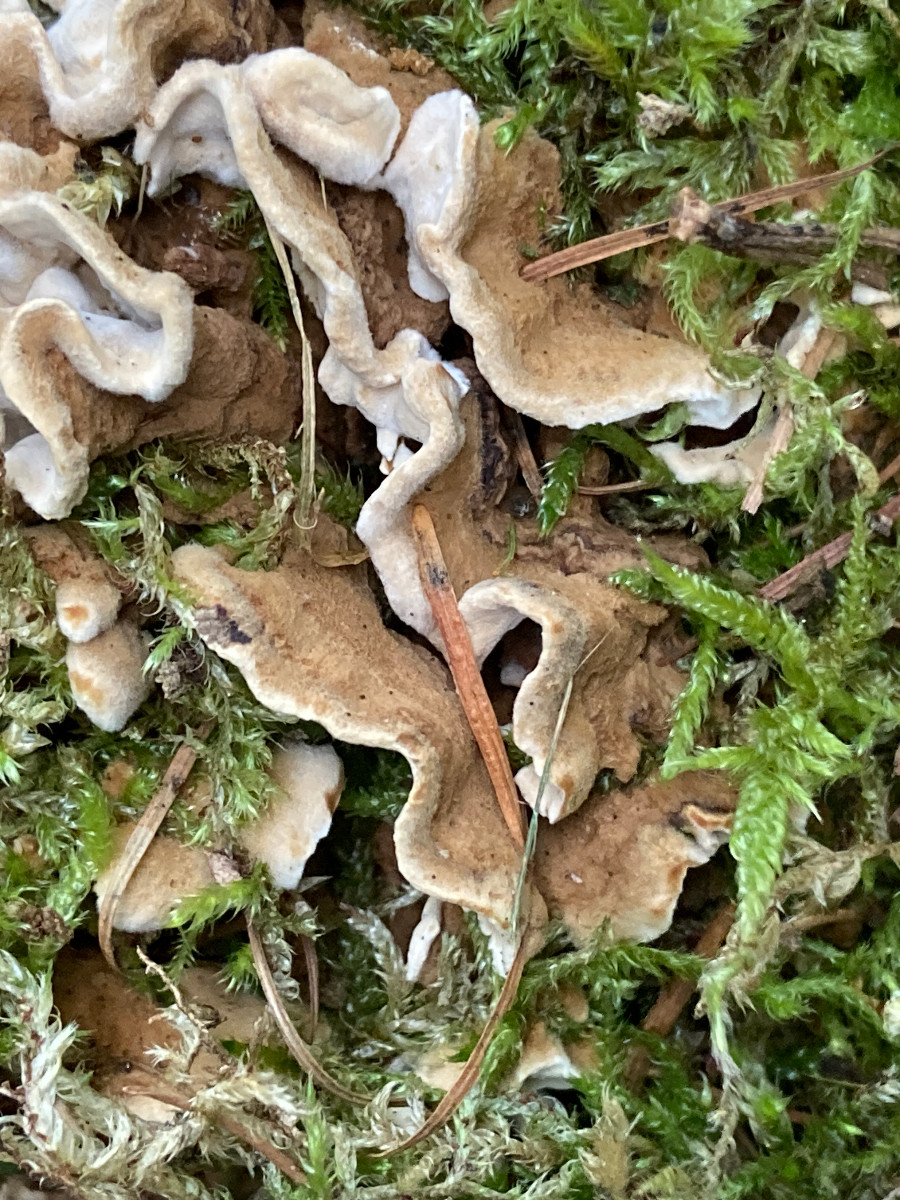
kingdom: Fungi
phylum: Basidiomycota
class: Agaricomycetes
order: Russulales
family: Hericiaceae
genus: Laxitextum
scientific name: Laxitextum bicolor
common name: tvefarvet filtskind
